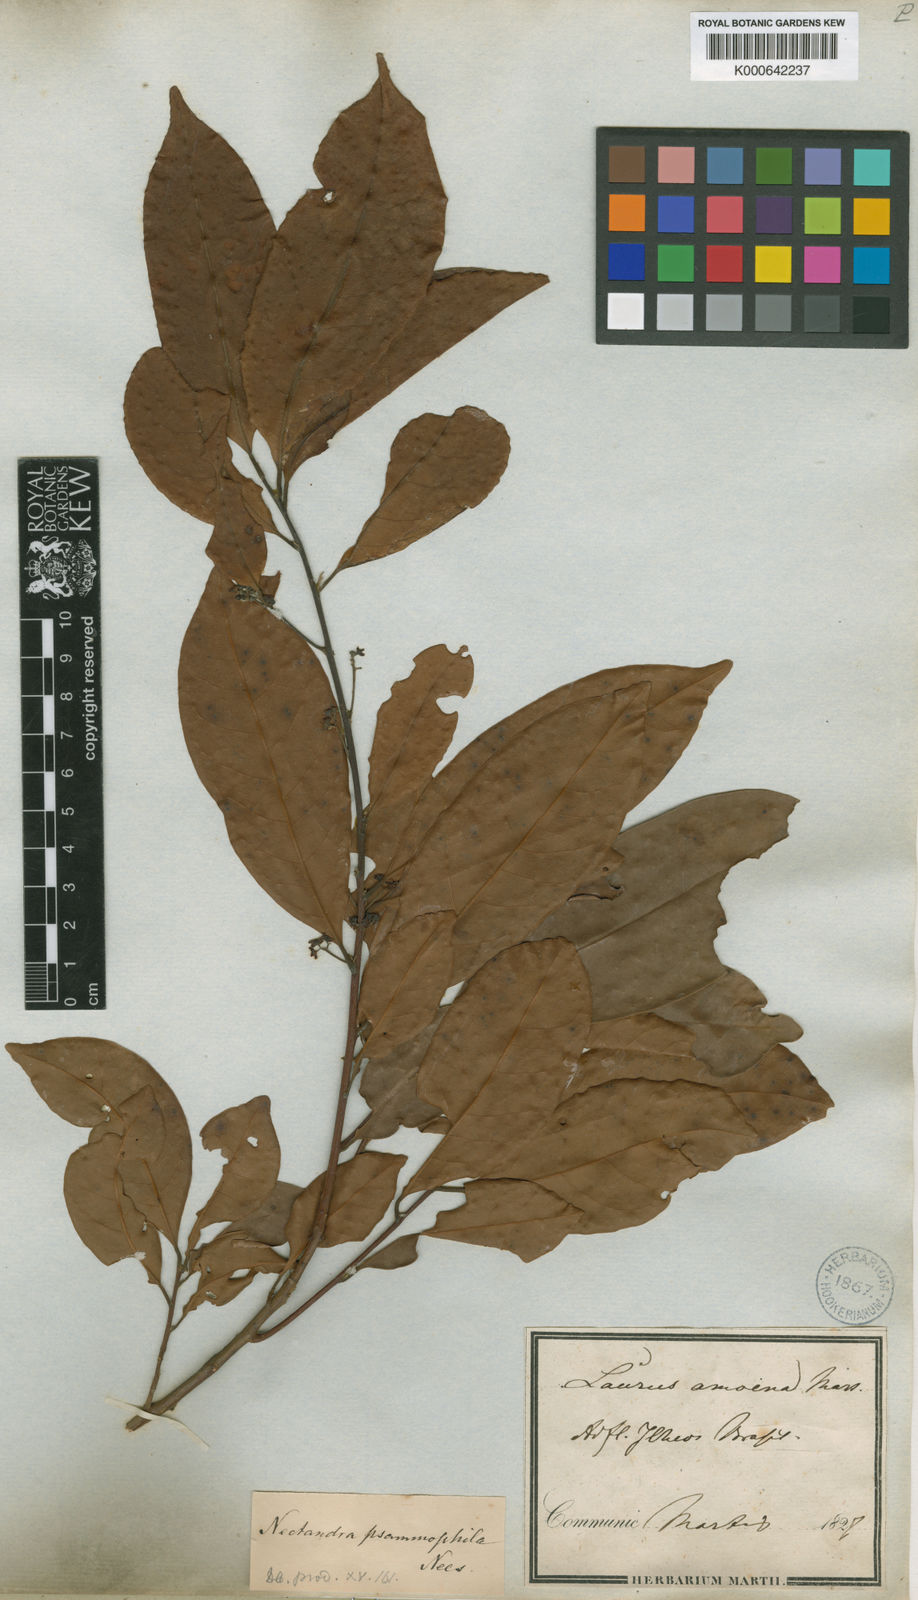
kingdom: Plantae
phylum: Tracheophyta
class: Magnoliopsida
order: Laurales
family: Lauraceae
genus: Nectandra
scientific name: Nectandra psammophila
